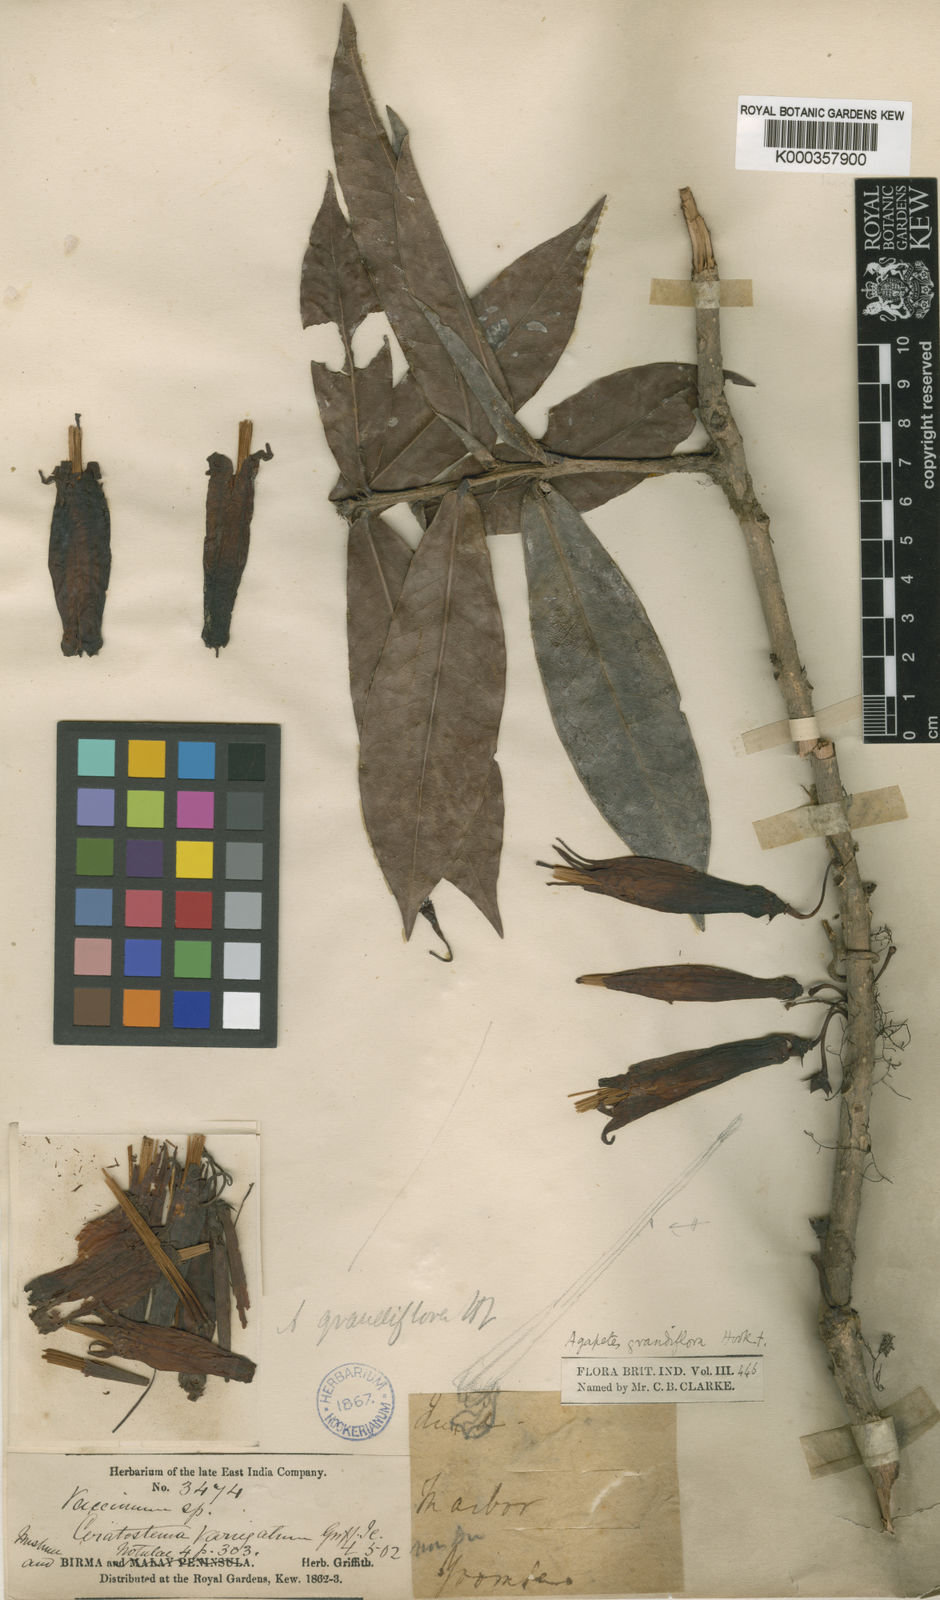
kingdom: Plantae
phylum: Tracheophyta
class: Magnoliopsida
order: Ericales
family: Ericaceae
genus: Agapetes
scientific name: Agapetes macrantha
